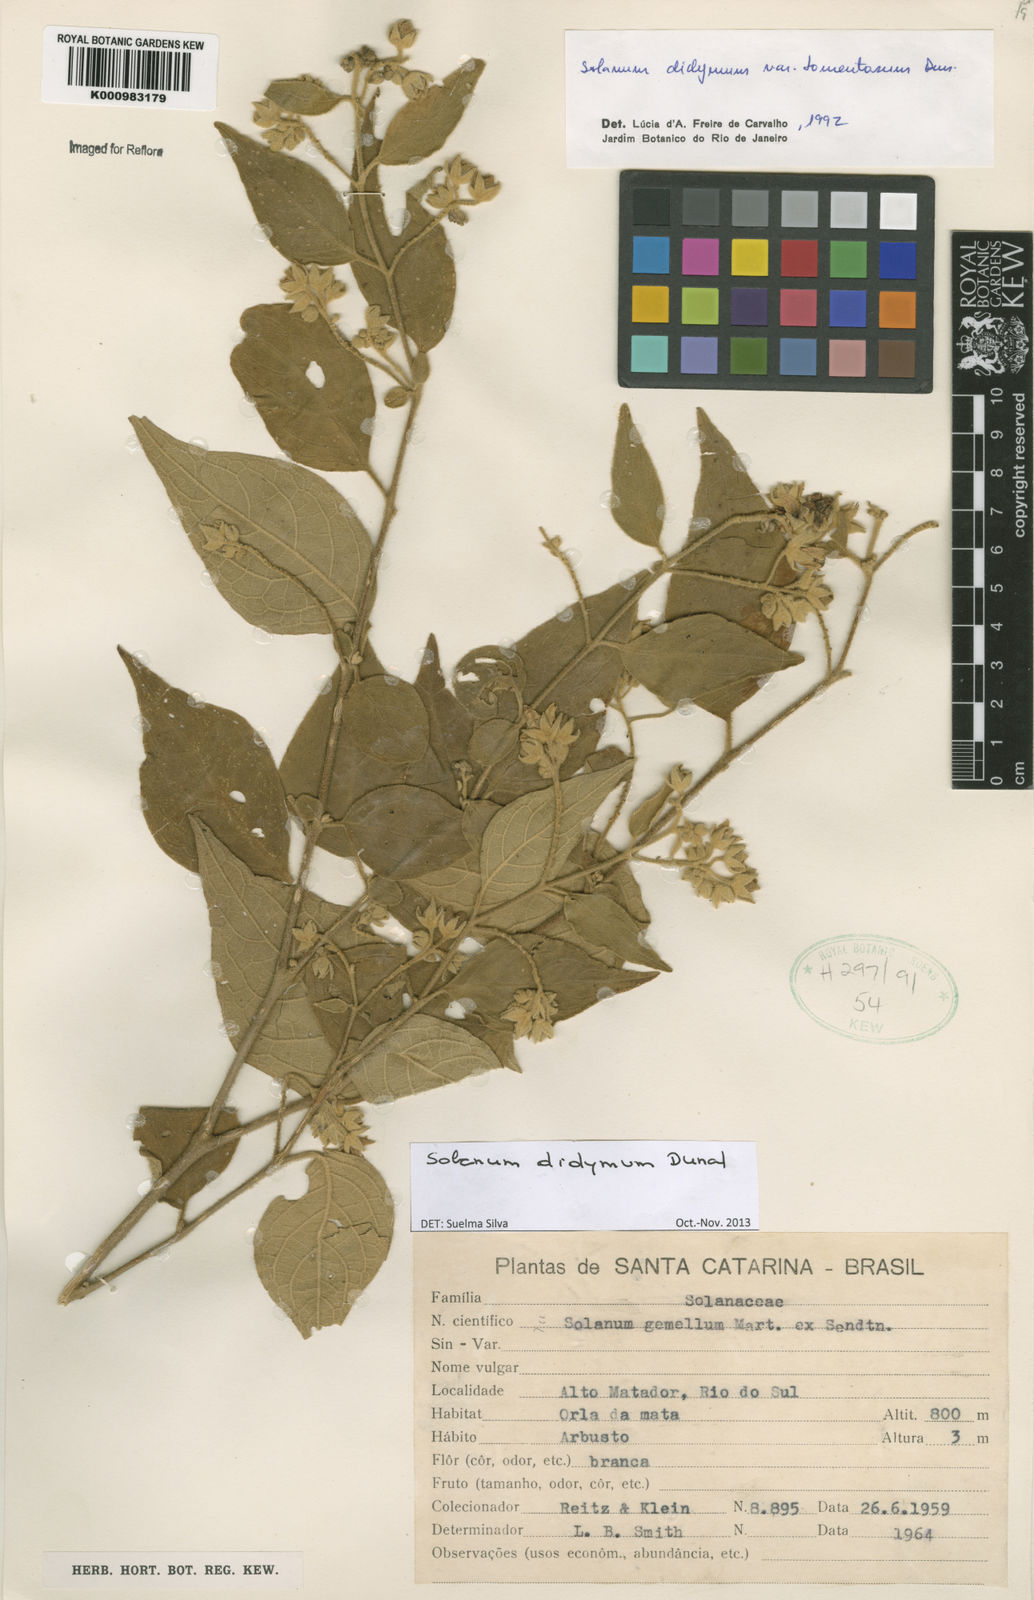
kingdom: Plantae
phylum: Tracheophyta
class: Magnoliopsida
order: Solanales
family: Solanaceae
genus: Solanum
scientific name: Solanum subsylvestre
